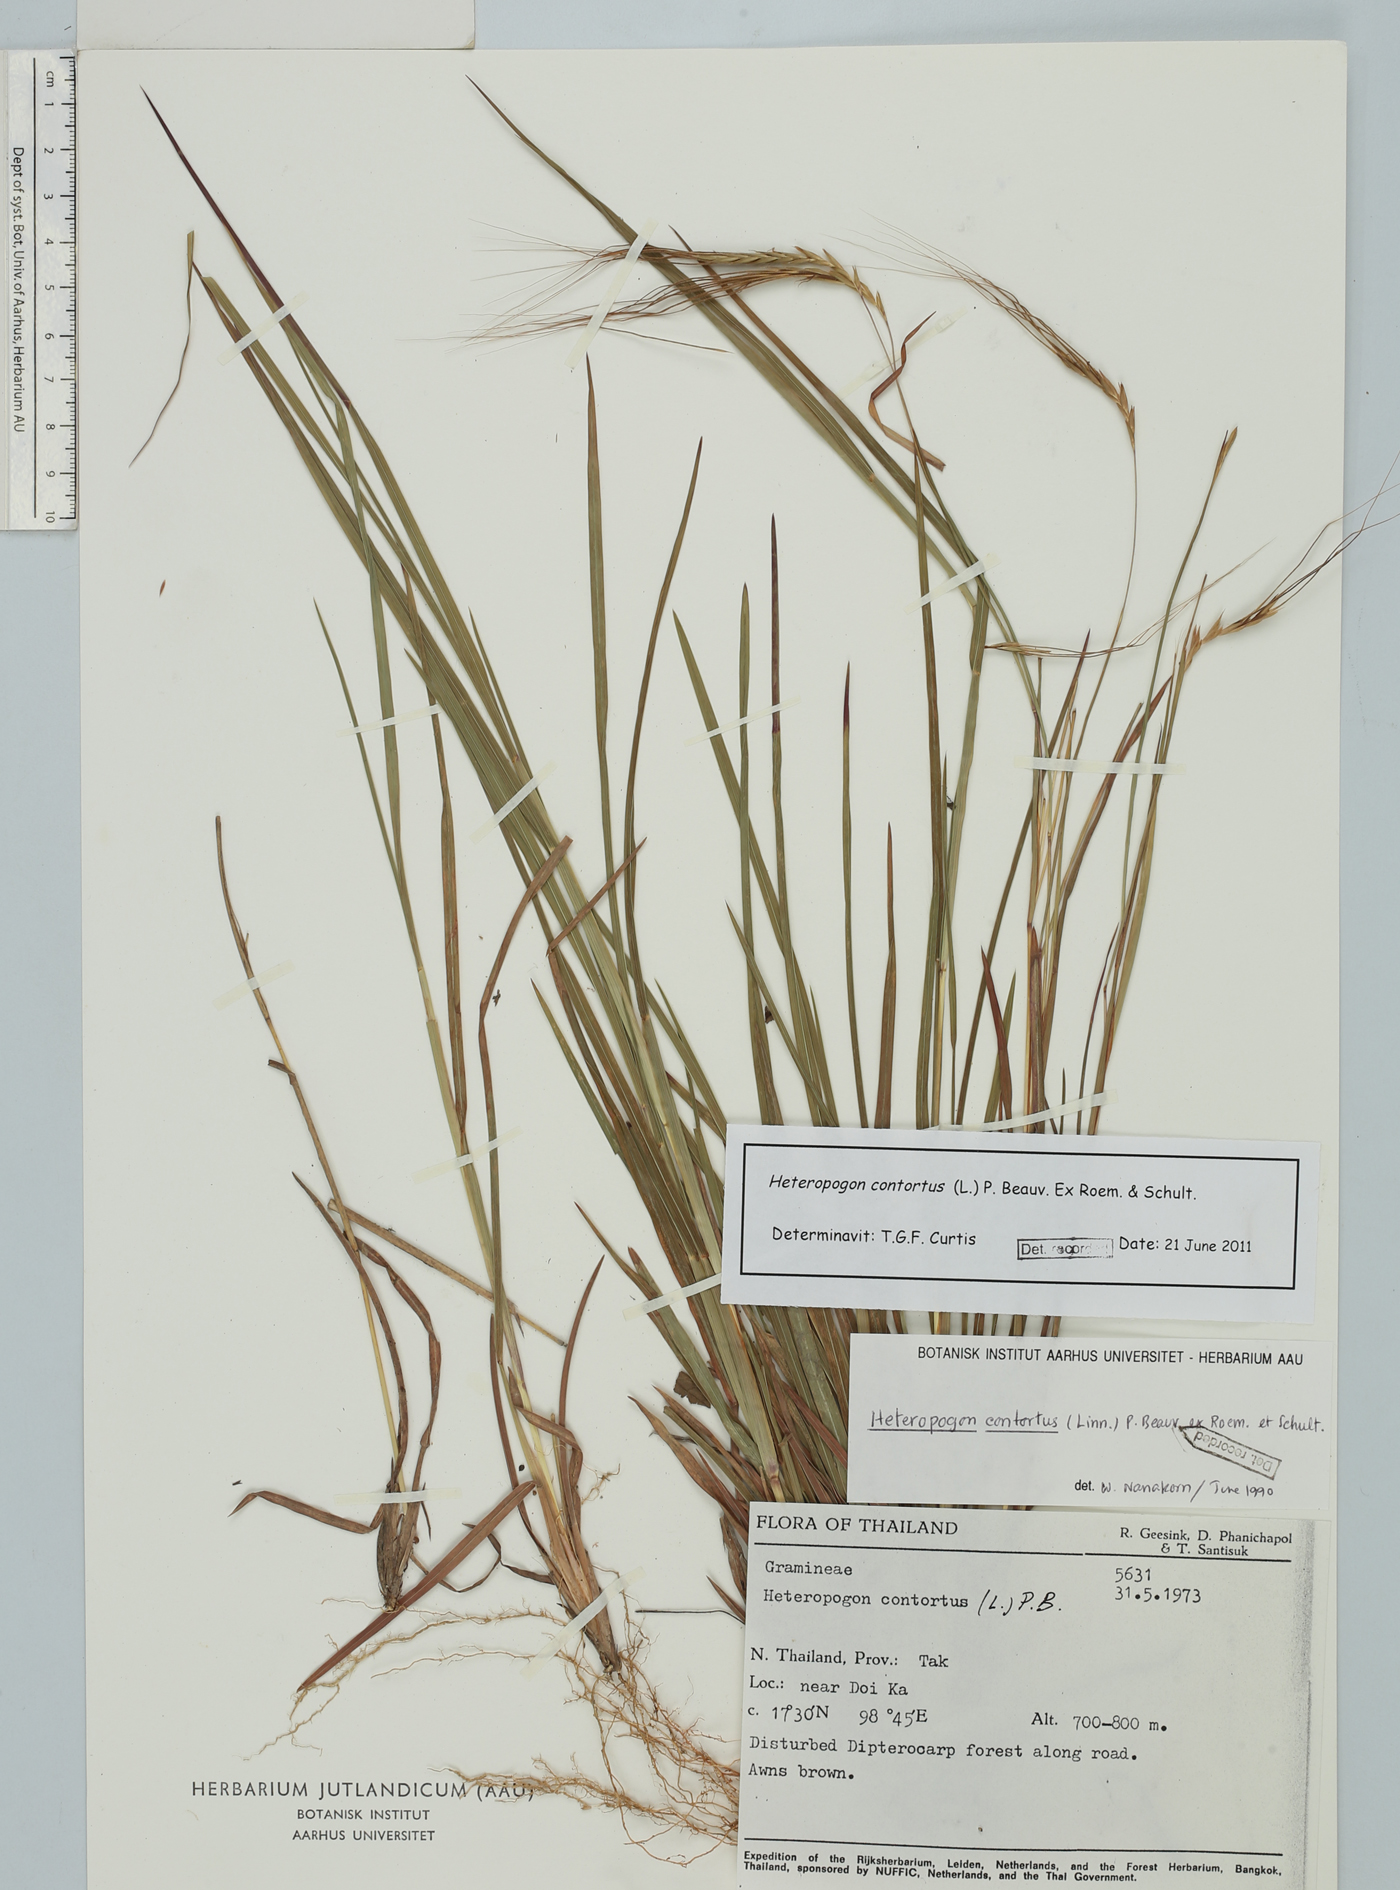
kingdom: Plantae
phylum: Tracheophyta
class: Liliopsida
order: Poales
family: Poaceae
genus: Heteropogon
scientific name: Heteropogon contortus
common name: Tanglehead
